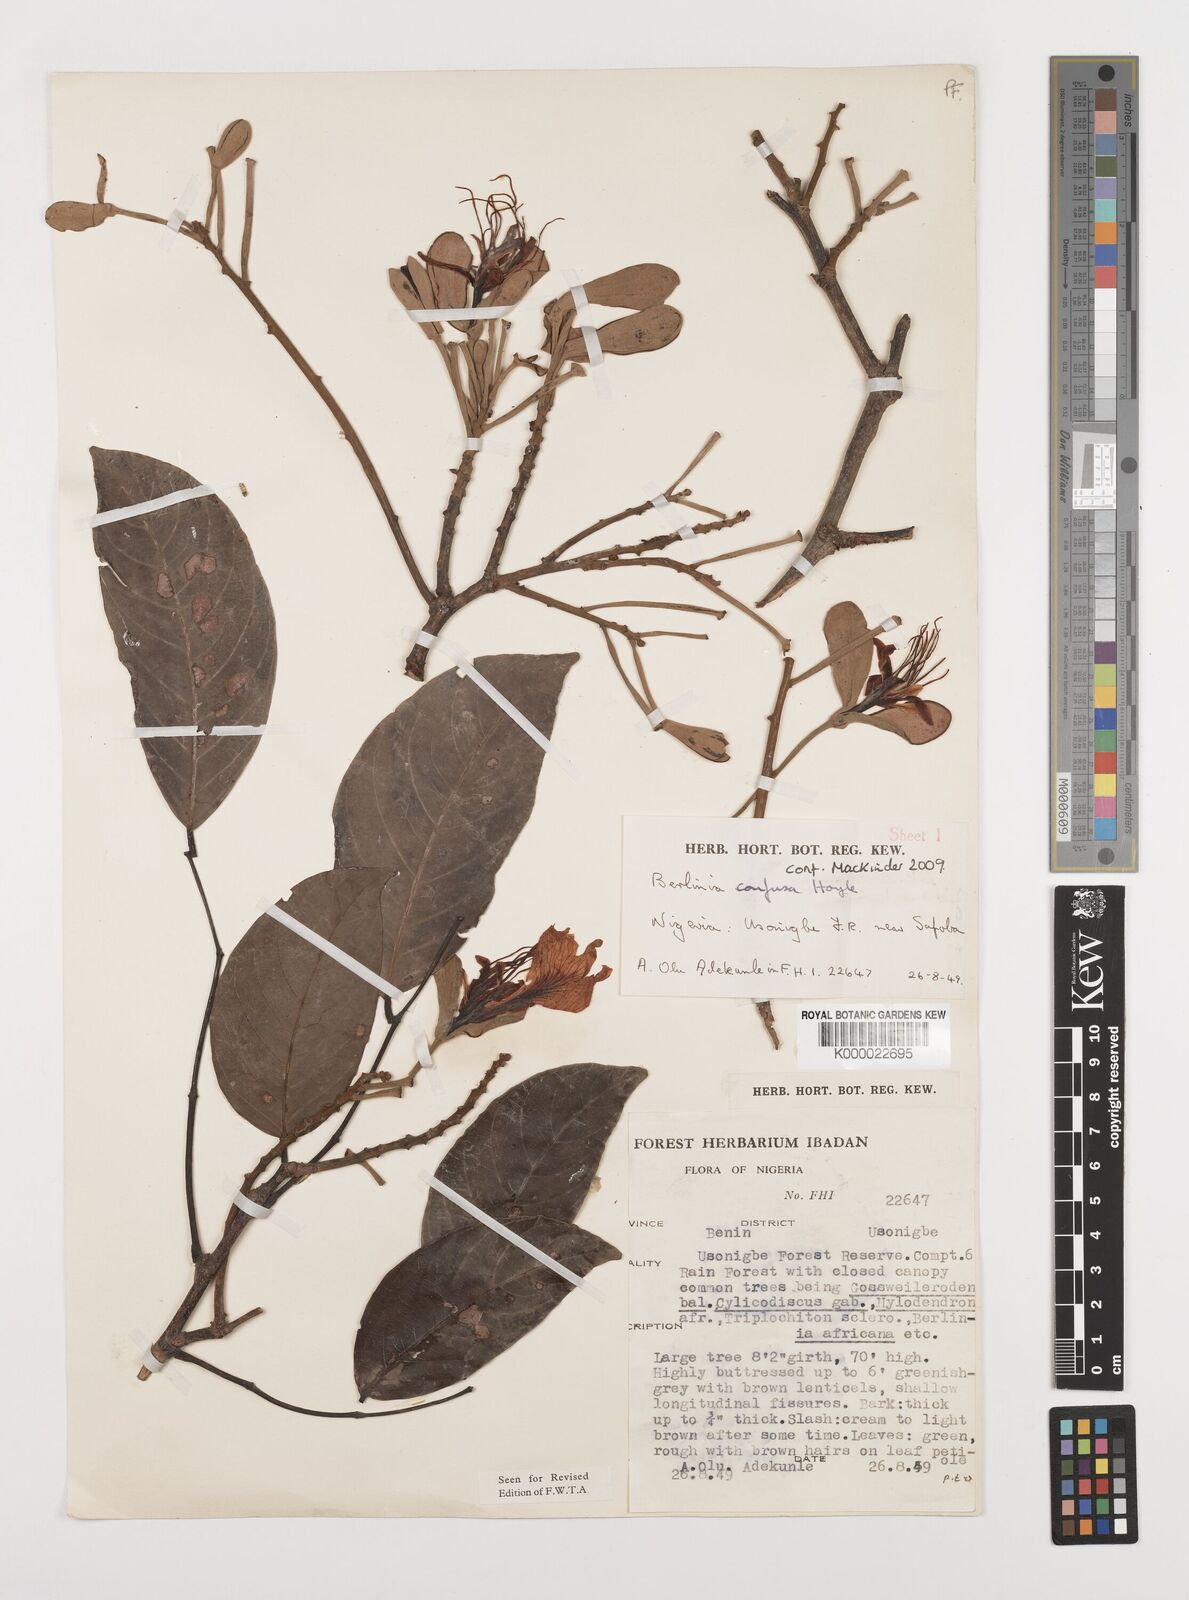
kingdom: Plantae
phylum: Tracheophyta
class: Magnoliopsida
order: Fabales
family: Fabaceae
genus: Berlinia
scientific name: Berlinia confusa
